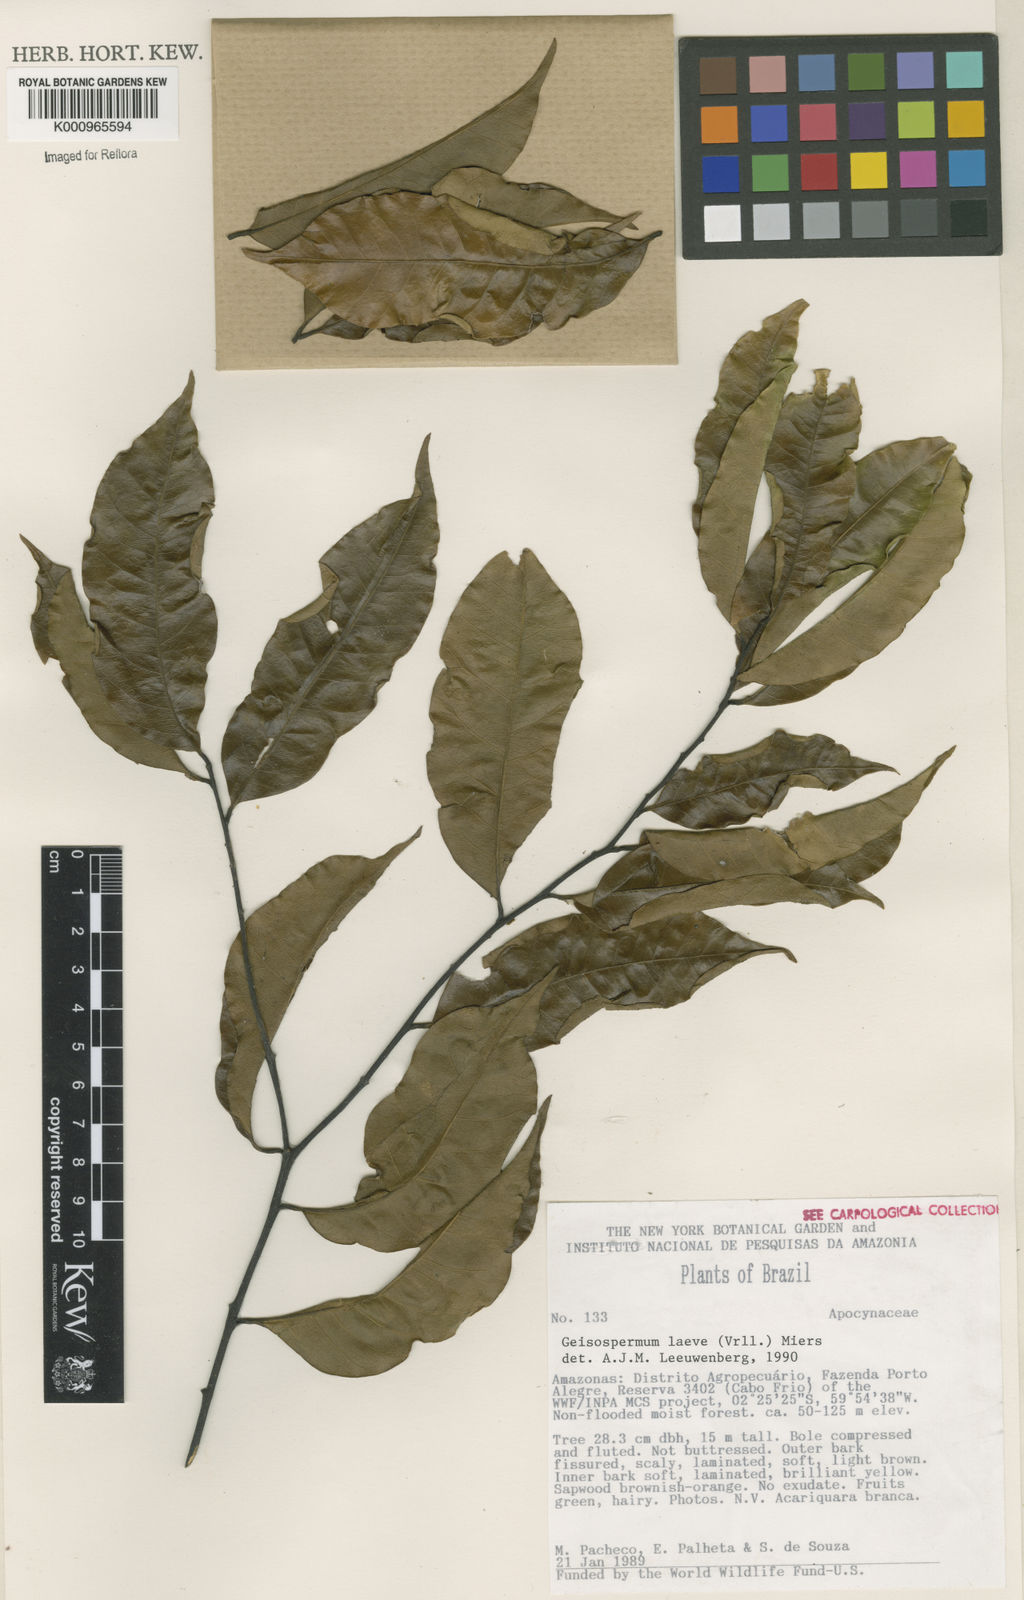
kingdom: Plantae
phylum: Tracheophyta
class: Magnoliopsida
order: Gentianales
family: Apocynaceae
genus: Geissospermum
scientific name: Geissospermum laeve
